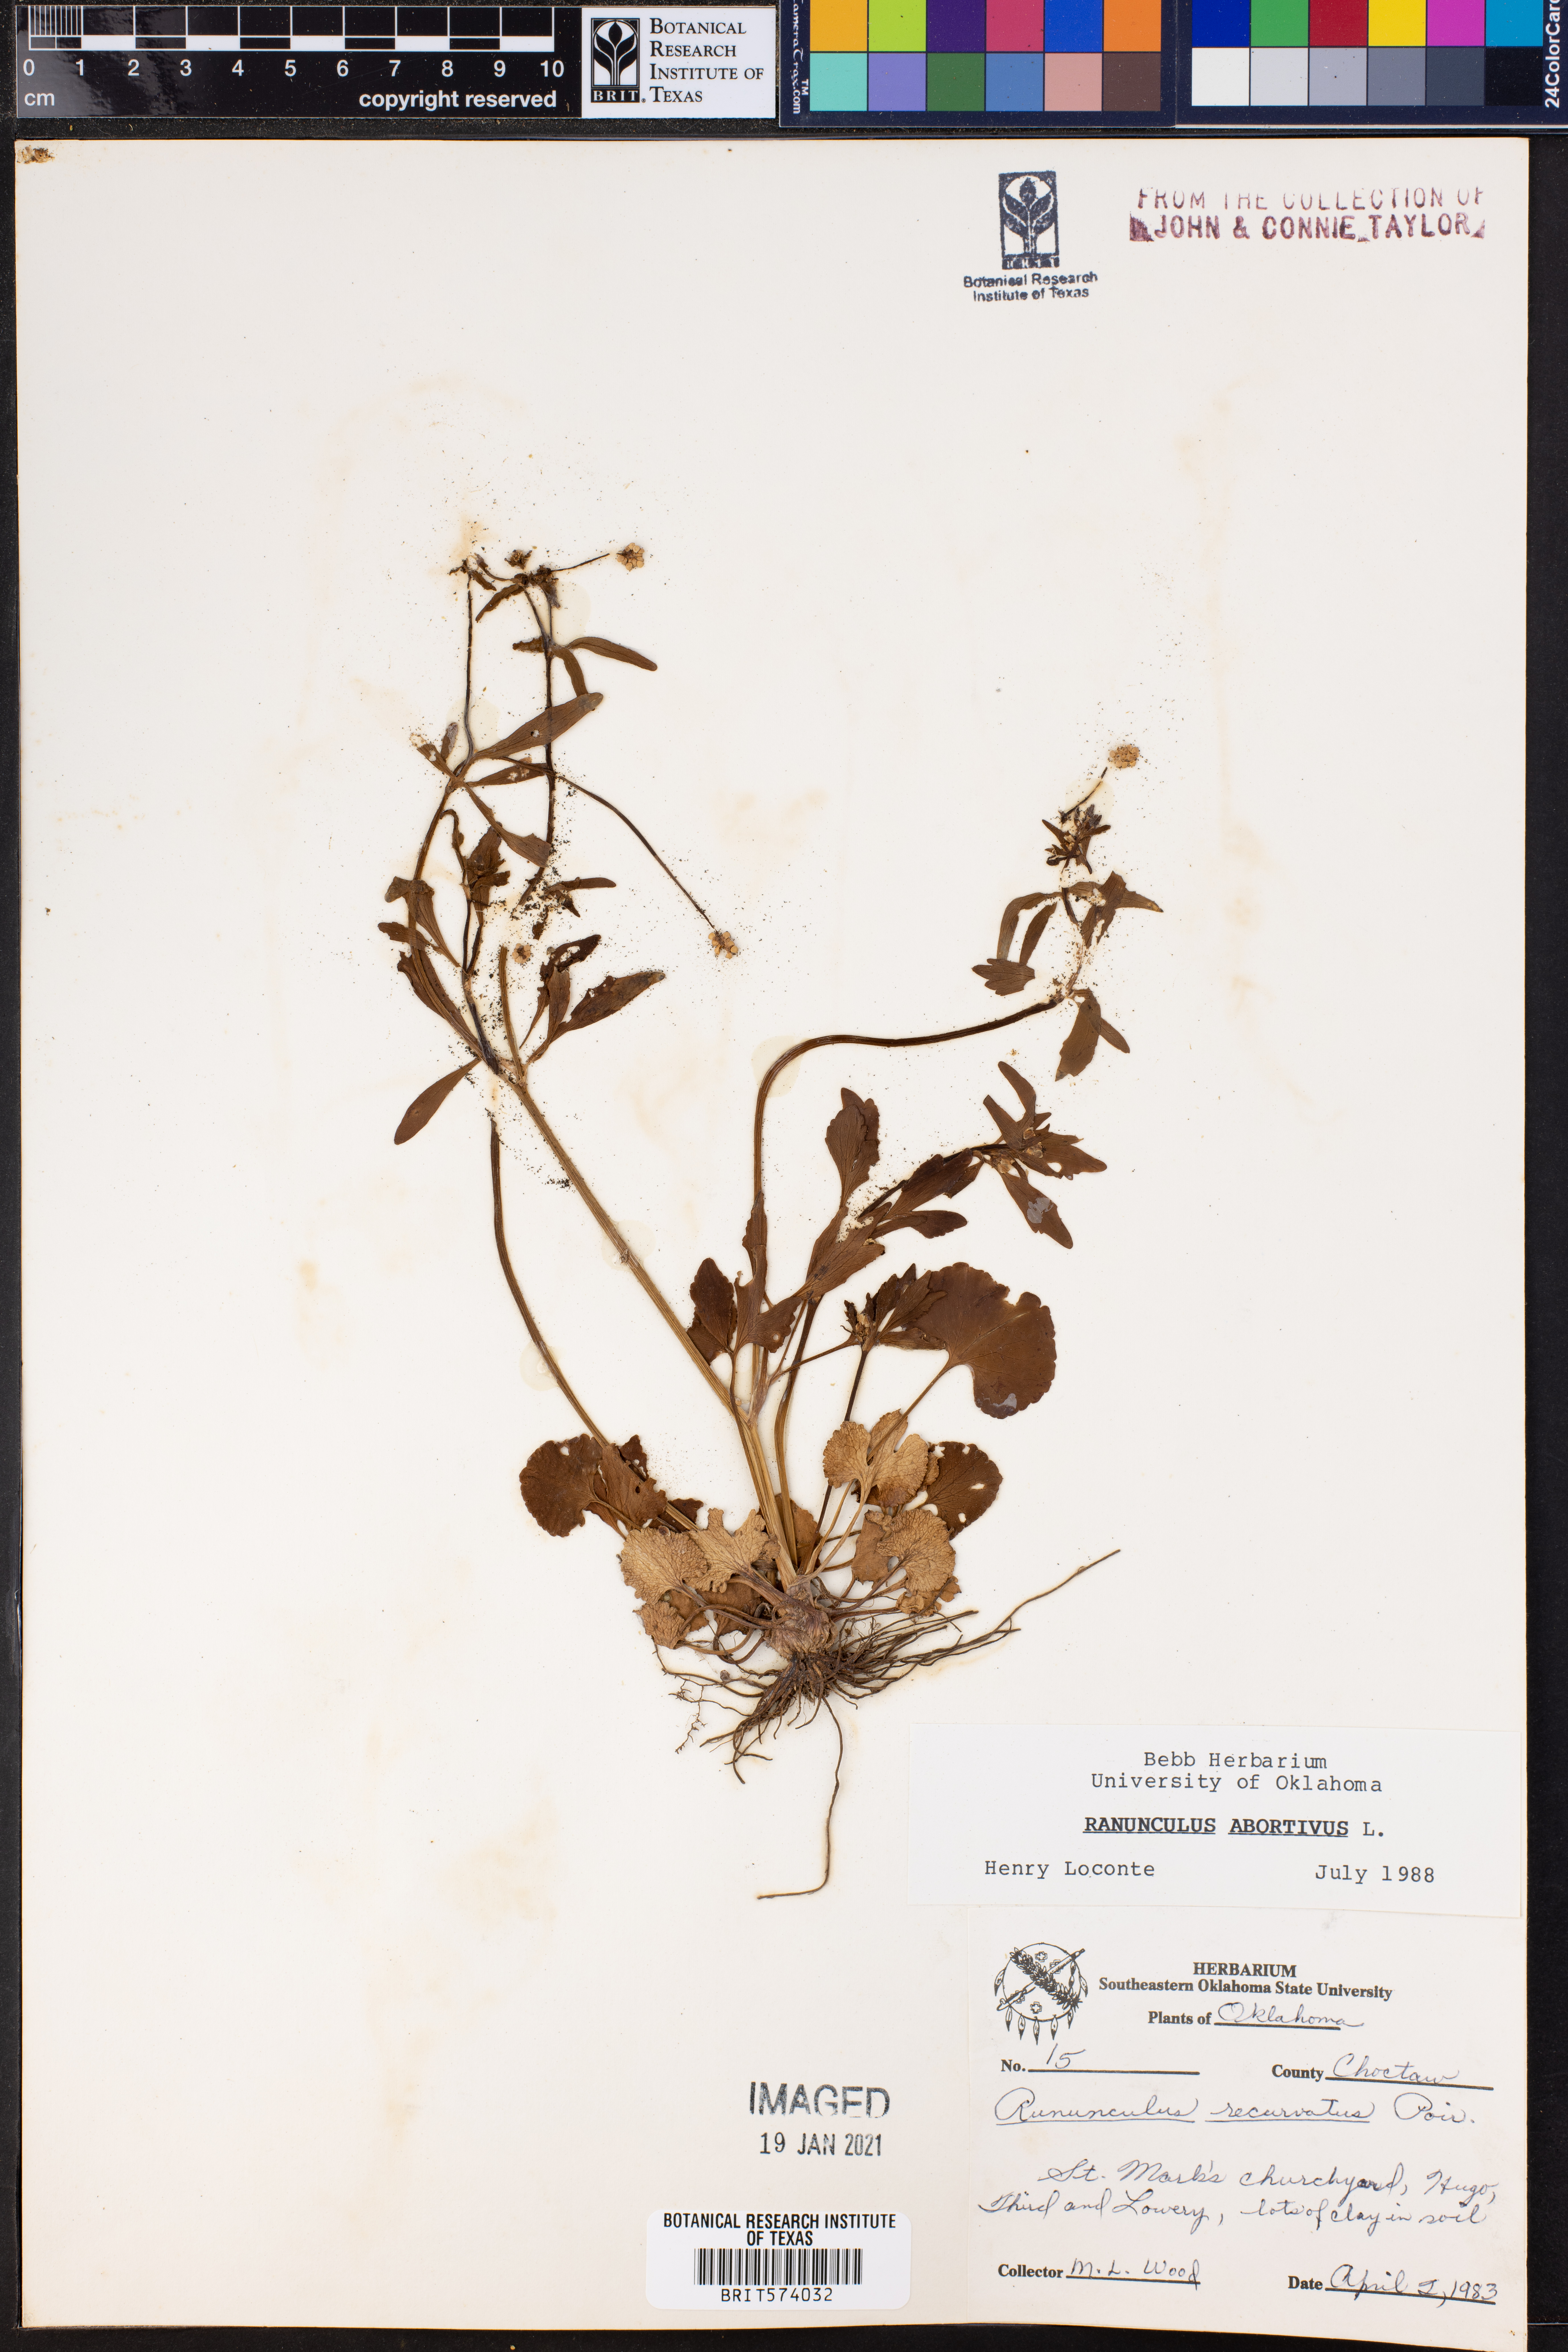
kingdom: Plantae
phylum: Tracheophyta
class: Magnoliopsida
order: Ranunculales
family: Ranunculaceae
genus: Ranunculus
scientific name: Ranunculus abortivus
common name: Early wood buttercup
